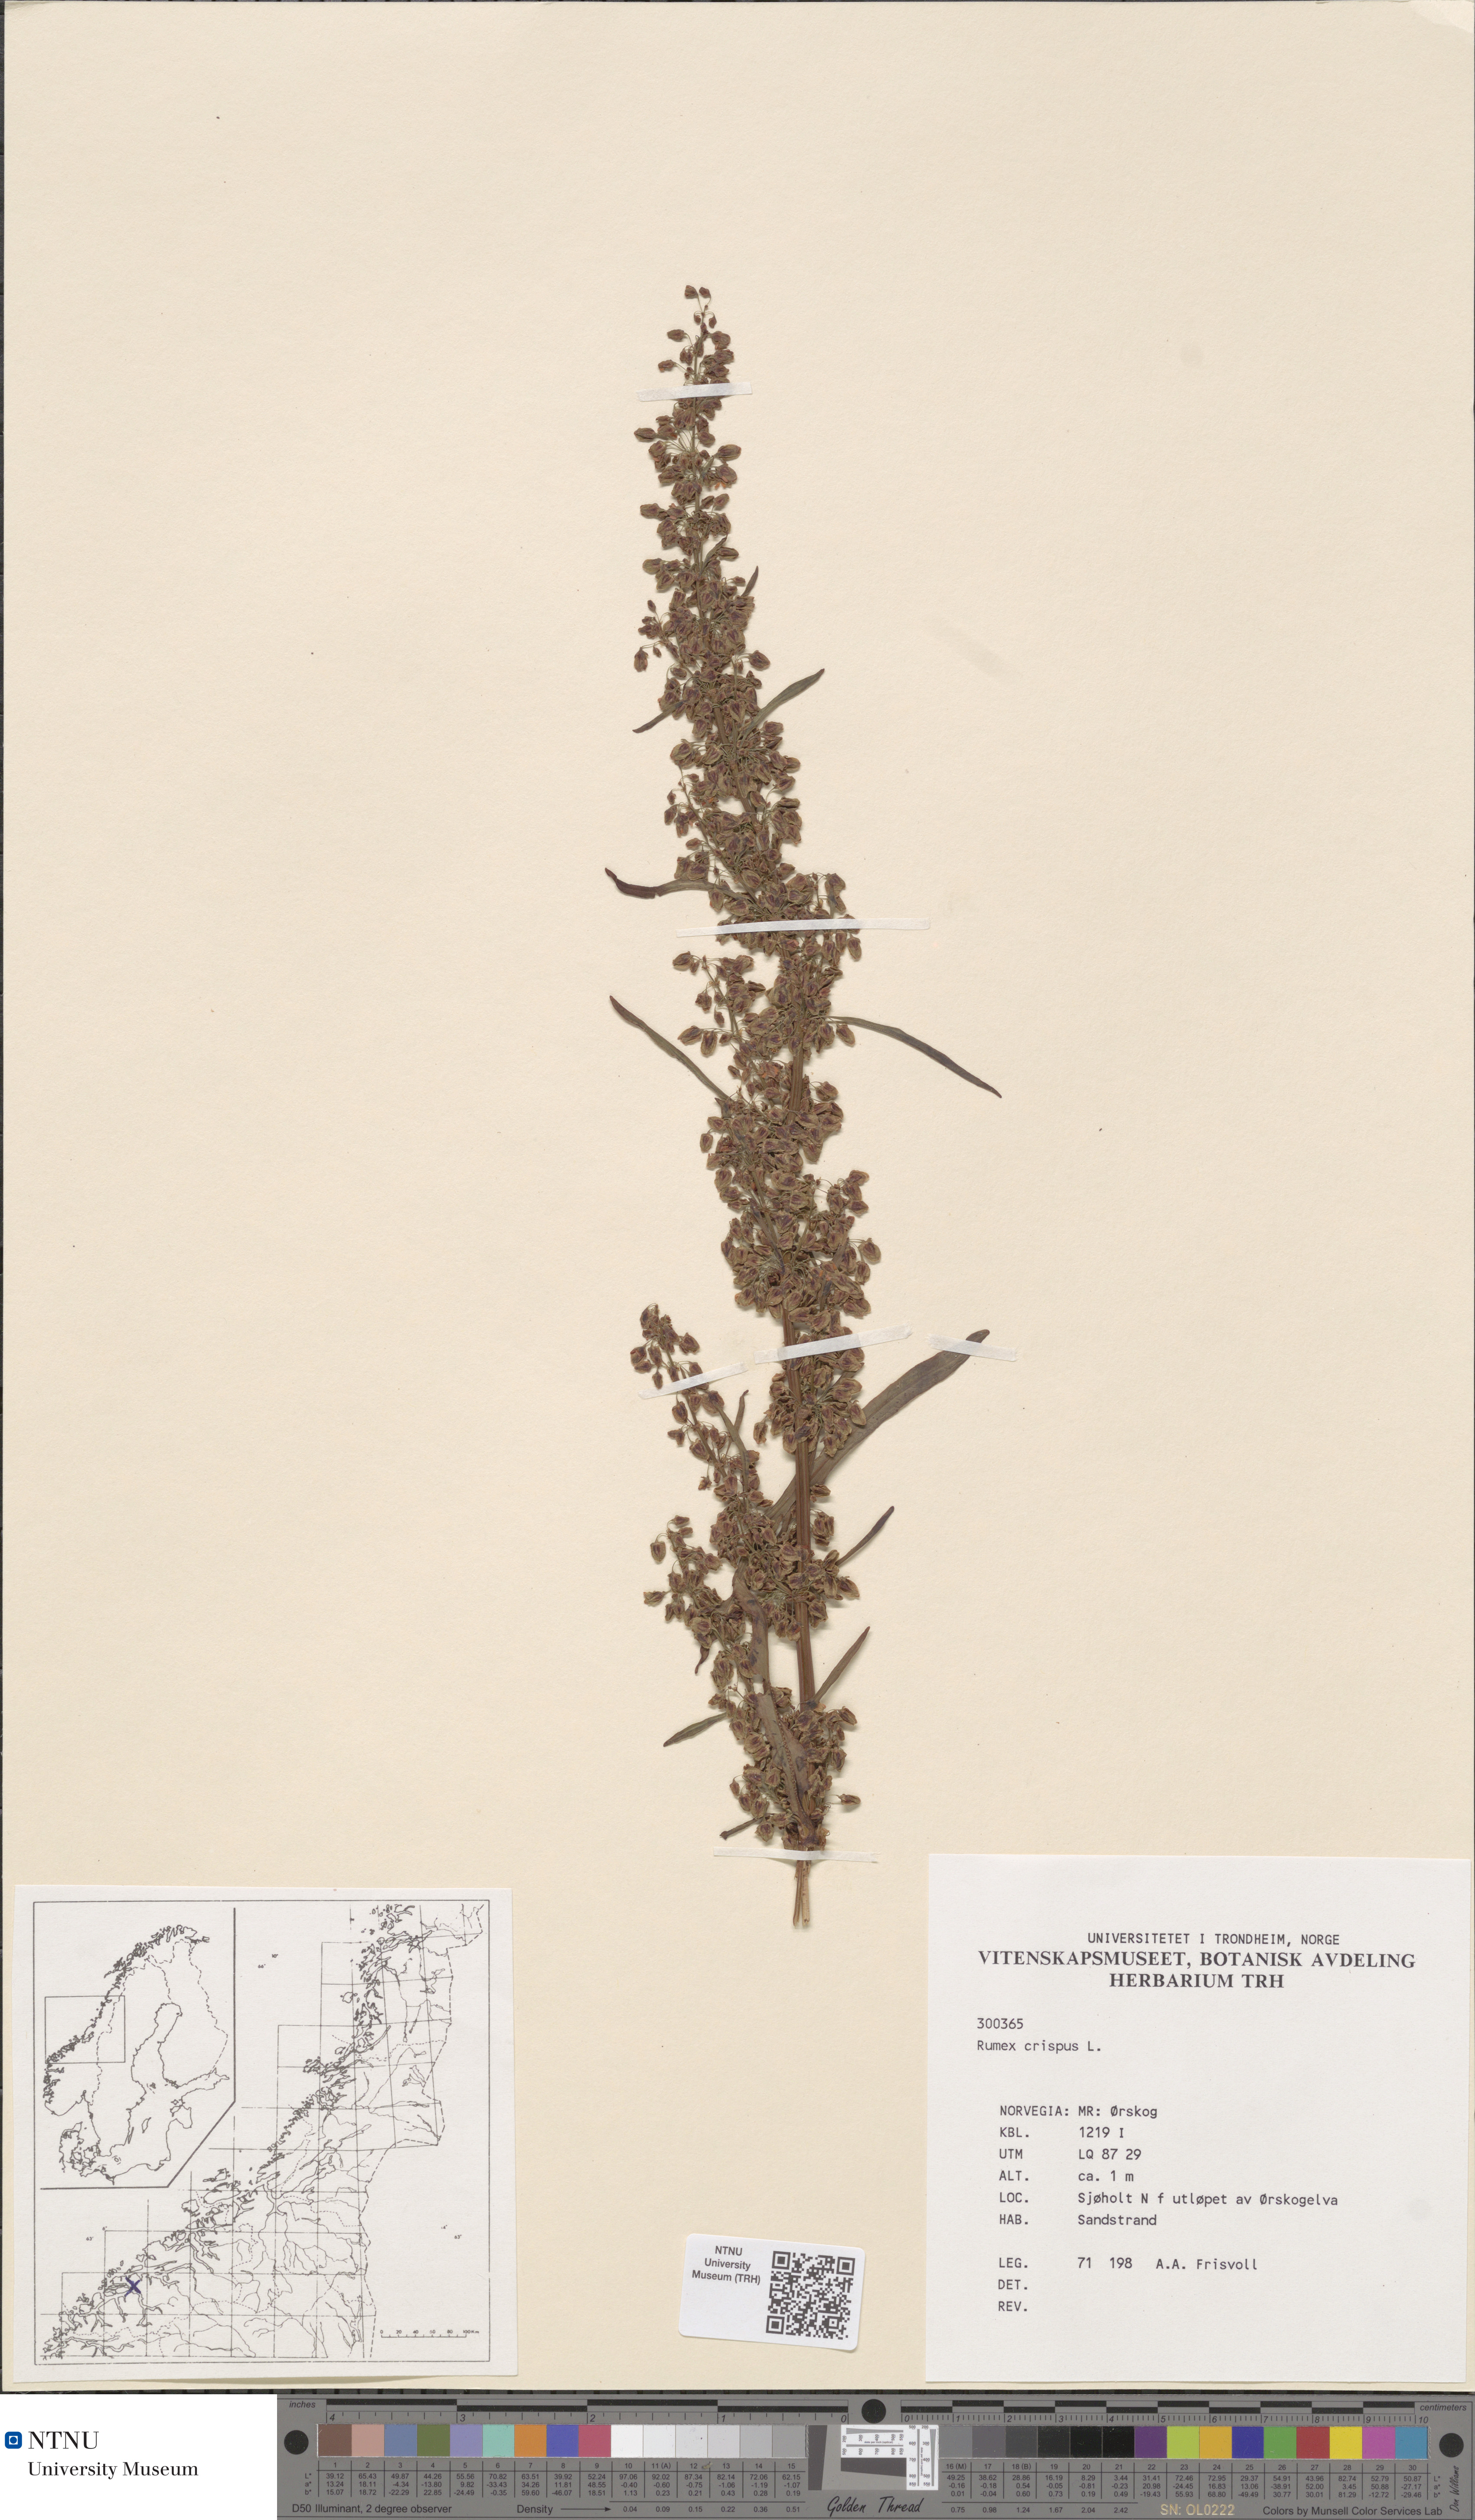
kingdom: Plantae
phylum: Tracheophyta
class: Magnoliopsida
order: Caryophyllales
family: Polygonaceae
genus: Rumex
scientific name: Rumex crispus
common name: Curled dock
